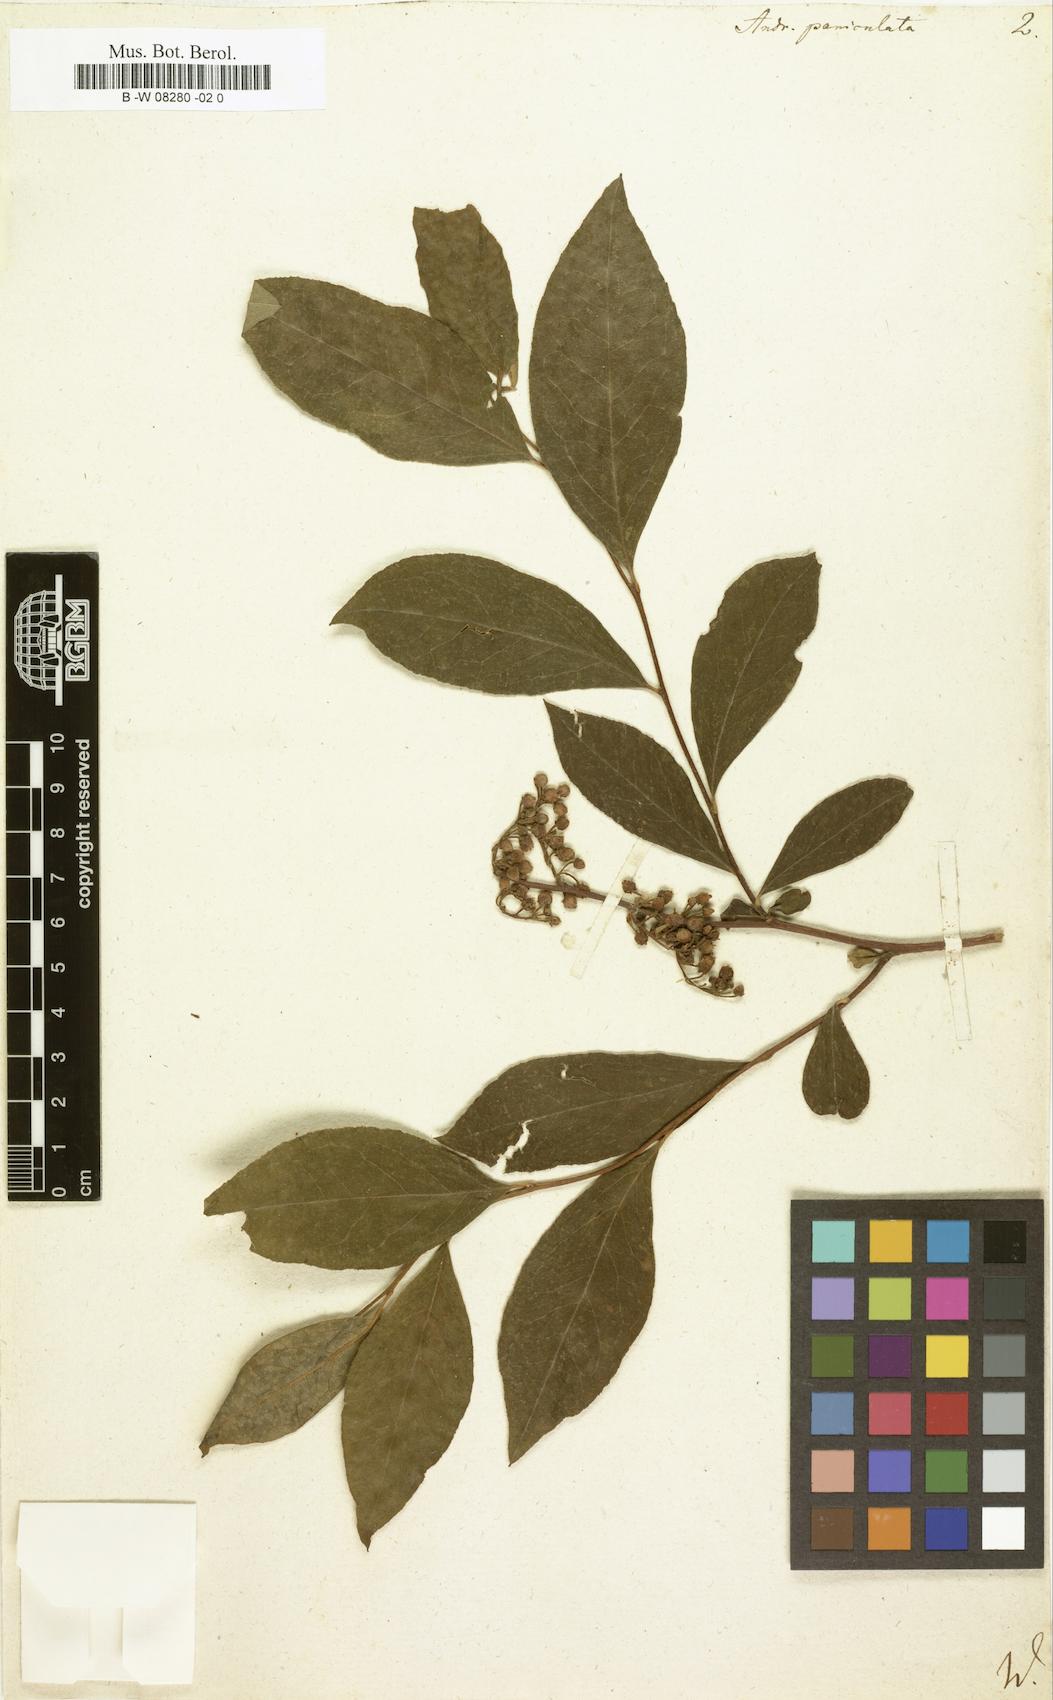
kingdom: Plantae
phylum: Tracheophyta
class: Magnoliopsida
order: Ericales
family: Ericaceae
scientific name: Ericaceae
